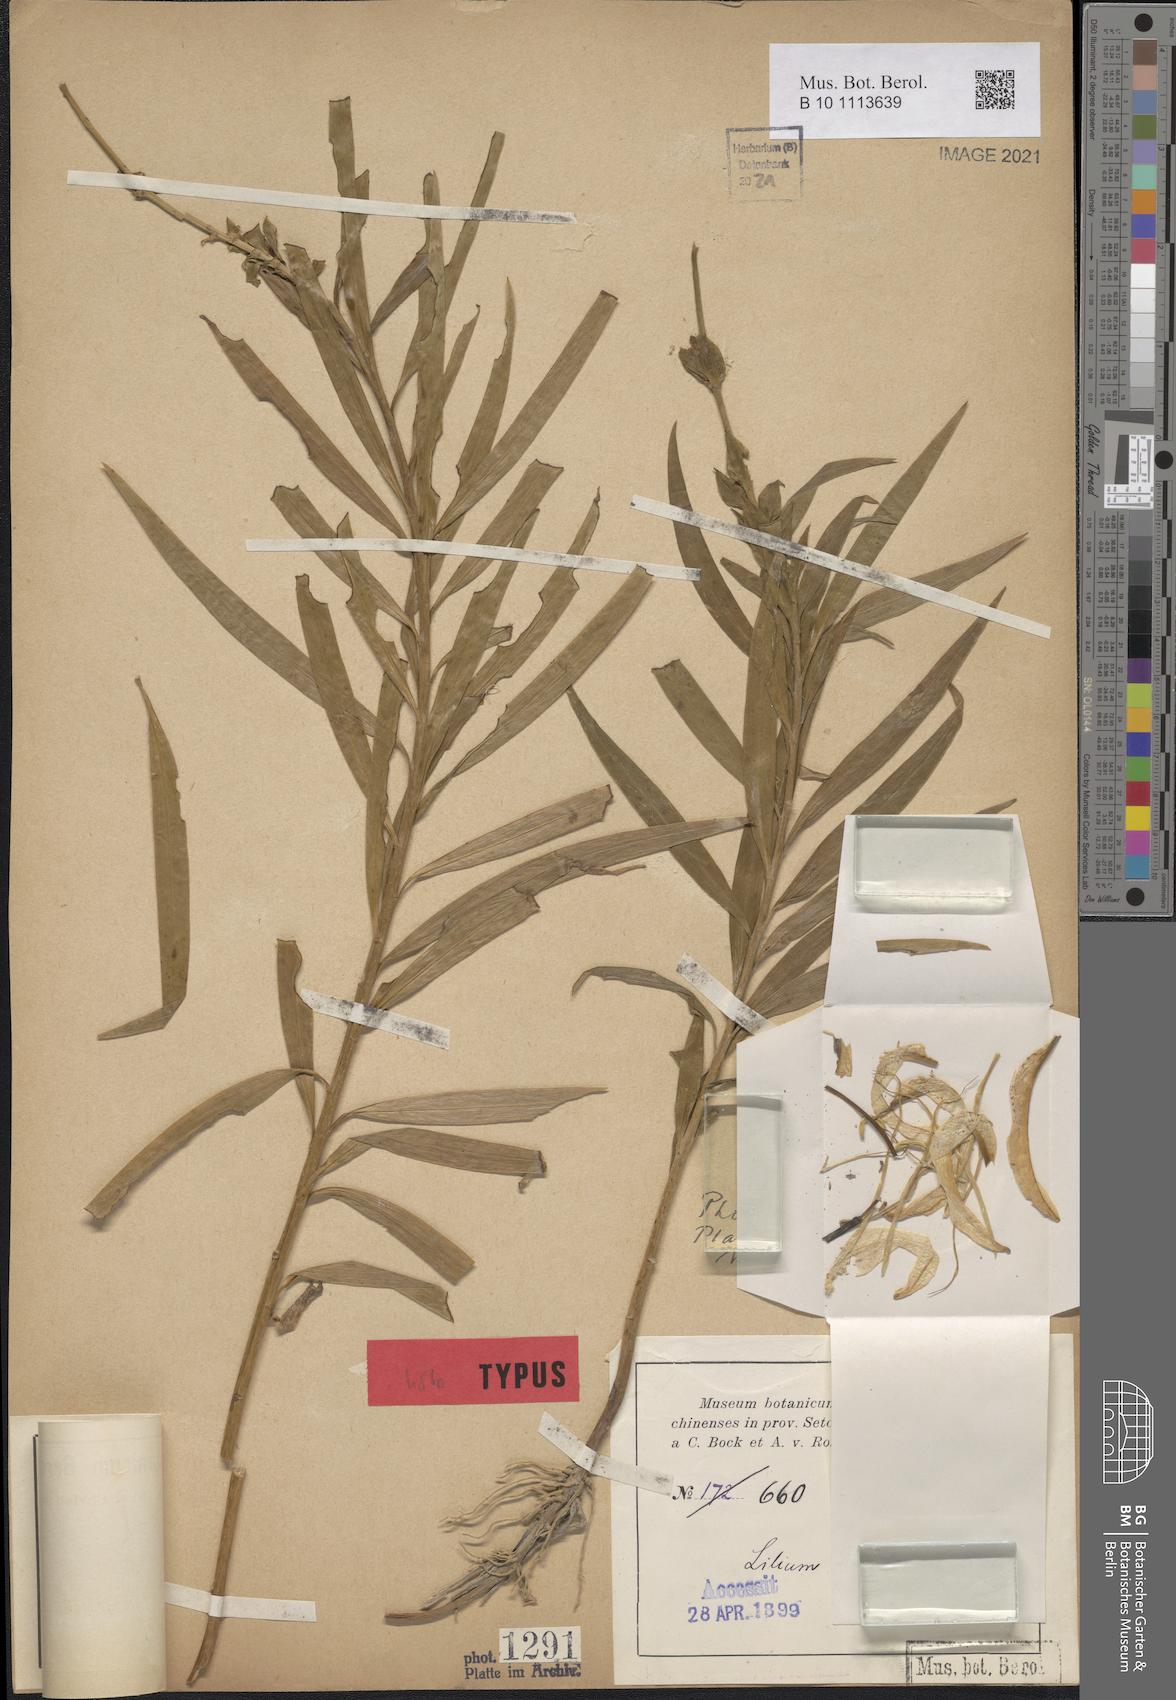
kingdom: Plantae
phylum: Tracheophyta
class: Liliopsida
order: Liliales
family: Liliaceae
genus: Lilium
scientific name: Lilium rosthornii
